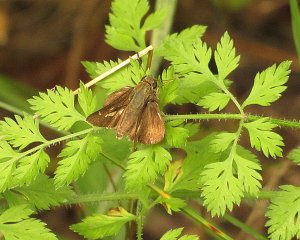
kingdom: Animalia
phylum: Arthropoda
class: Insecta
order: Lepidoptera
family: Hesperiidae
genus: Vernia
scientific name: Vernia verna
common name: Little Glassywing
